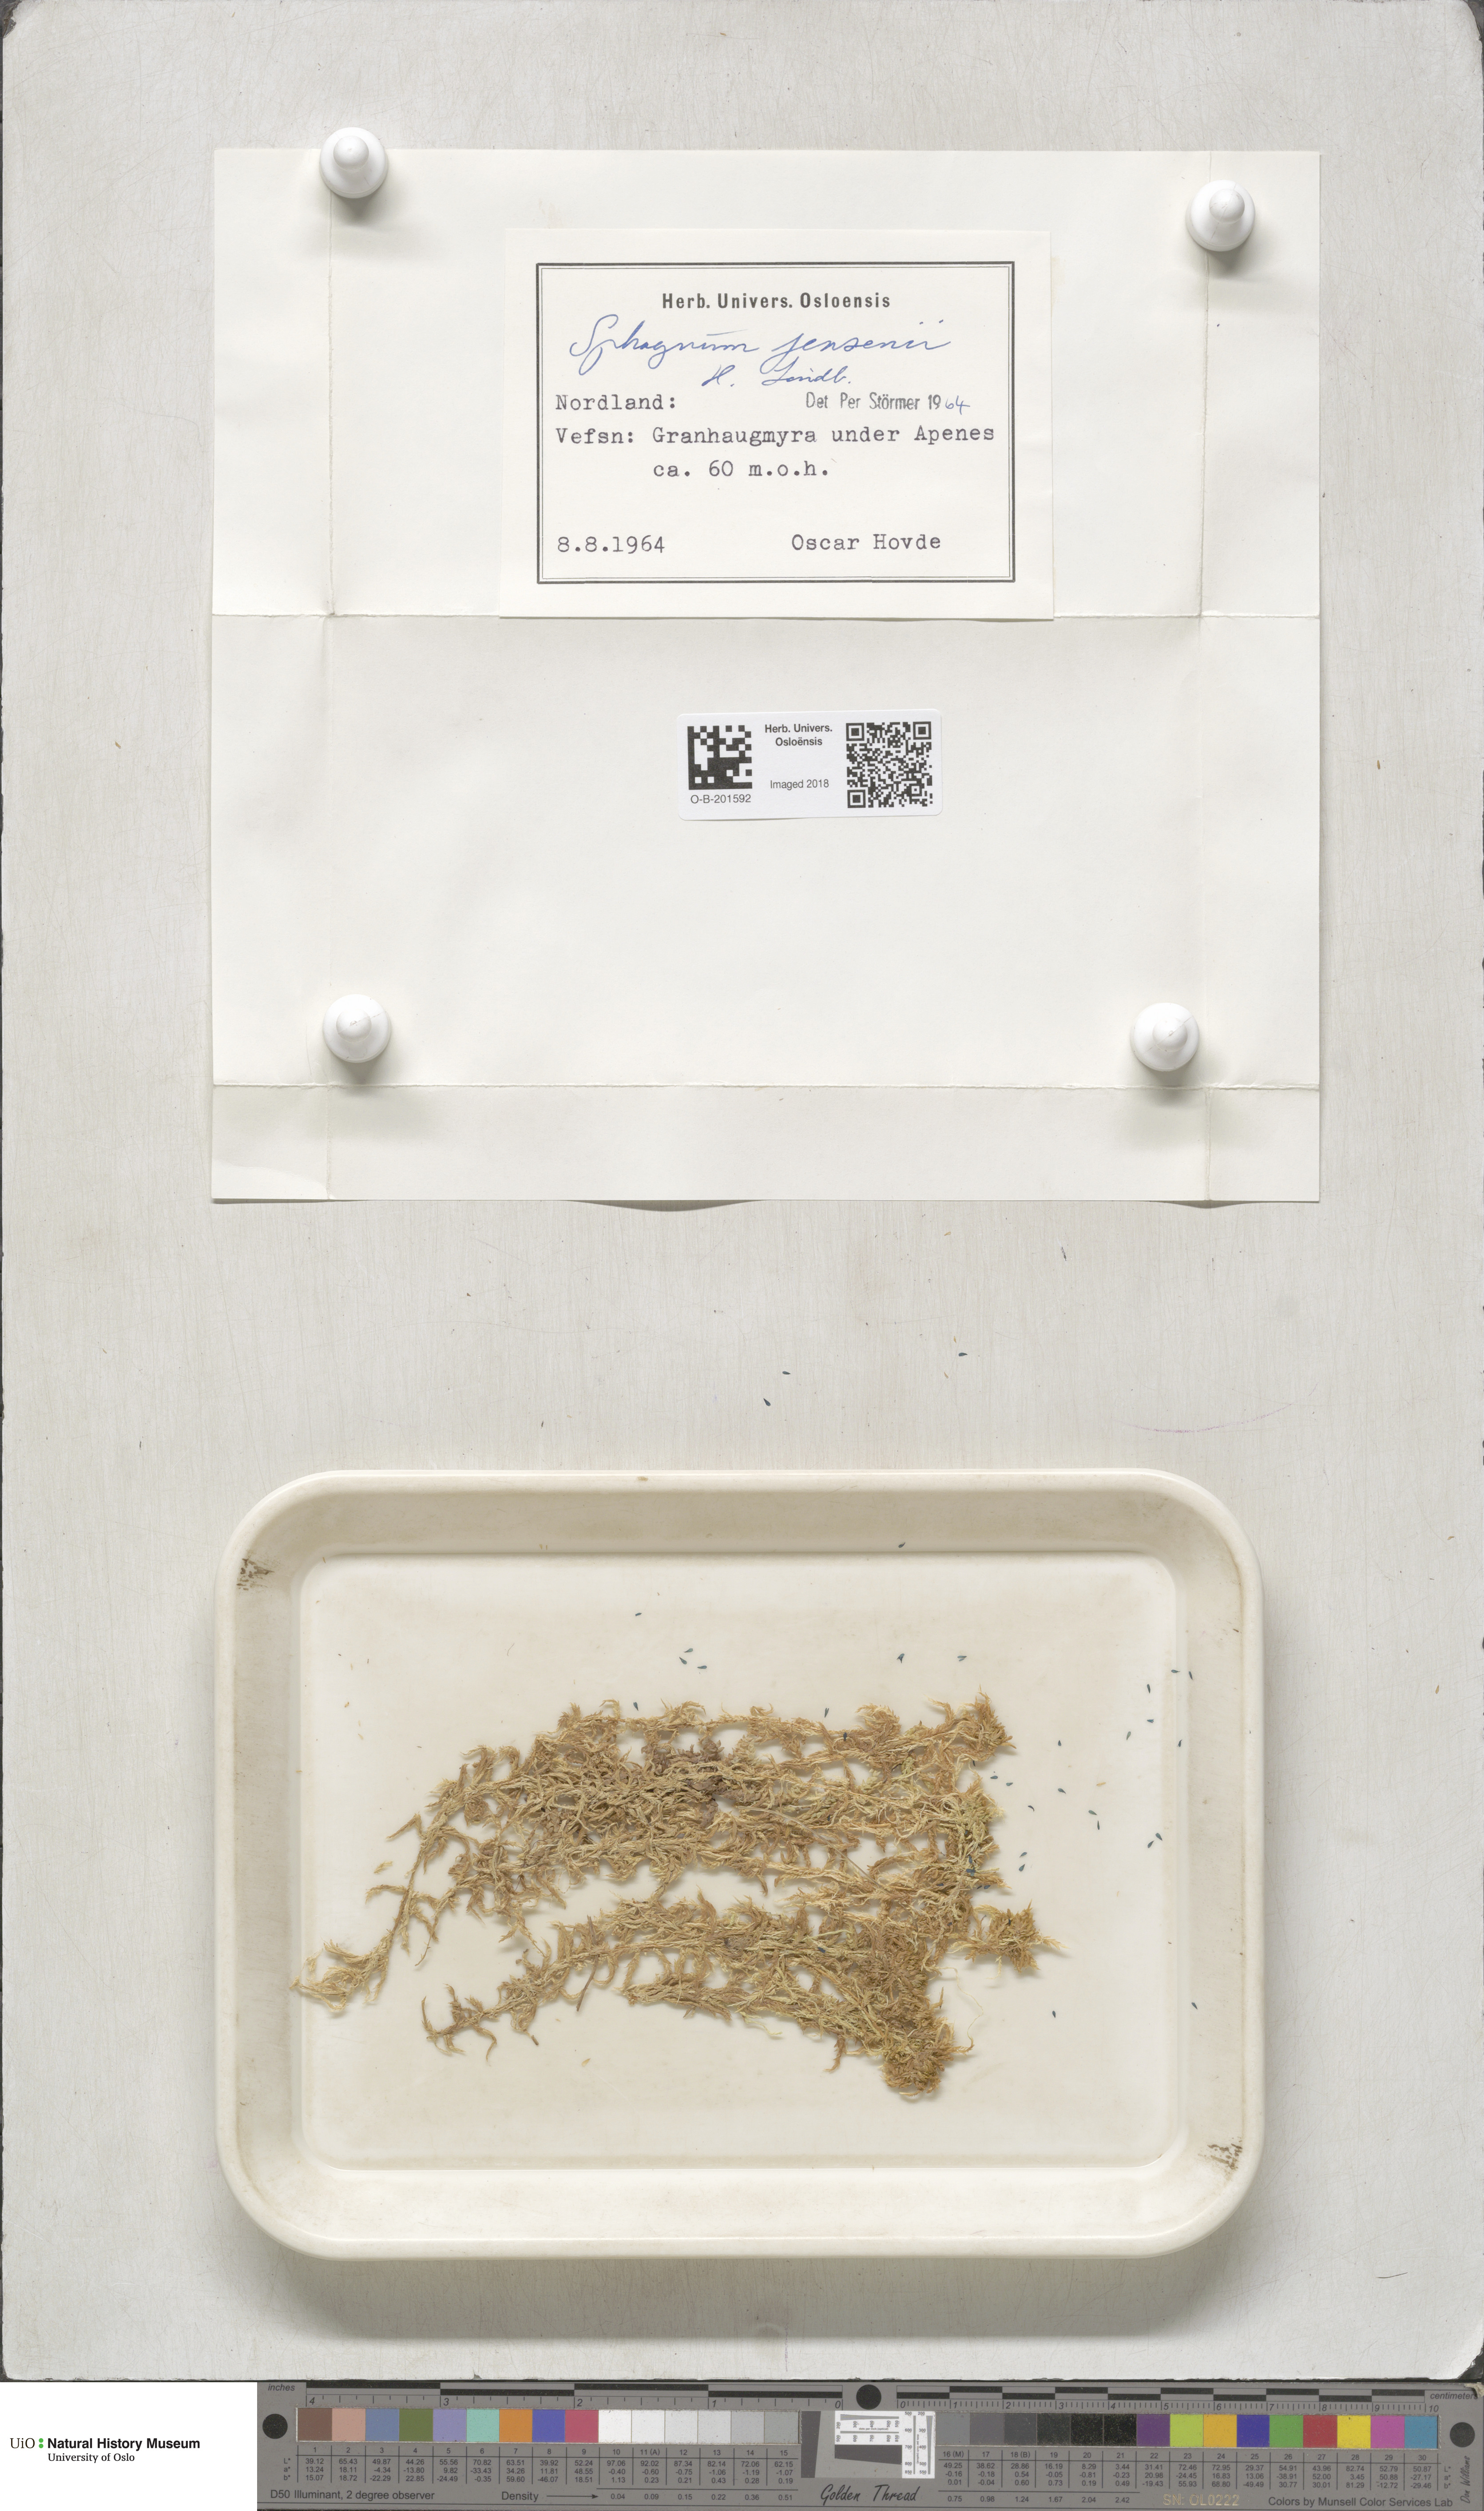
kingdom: Plantae
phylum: Bryophyta
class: Sphagnopsida
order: Sphagnales
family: Sphagnaceae
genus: Sphagnum
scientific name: Sphagnum jensenii
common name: Jensen's peat moss
